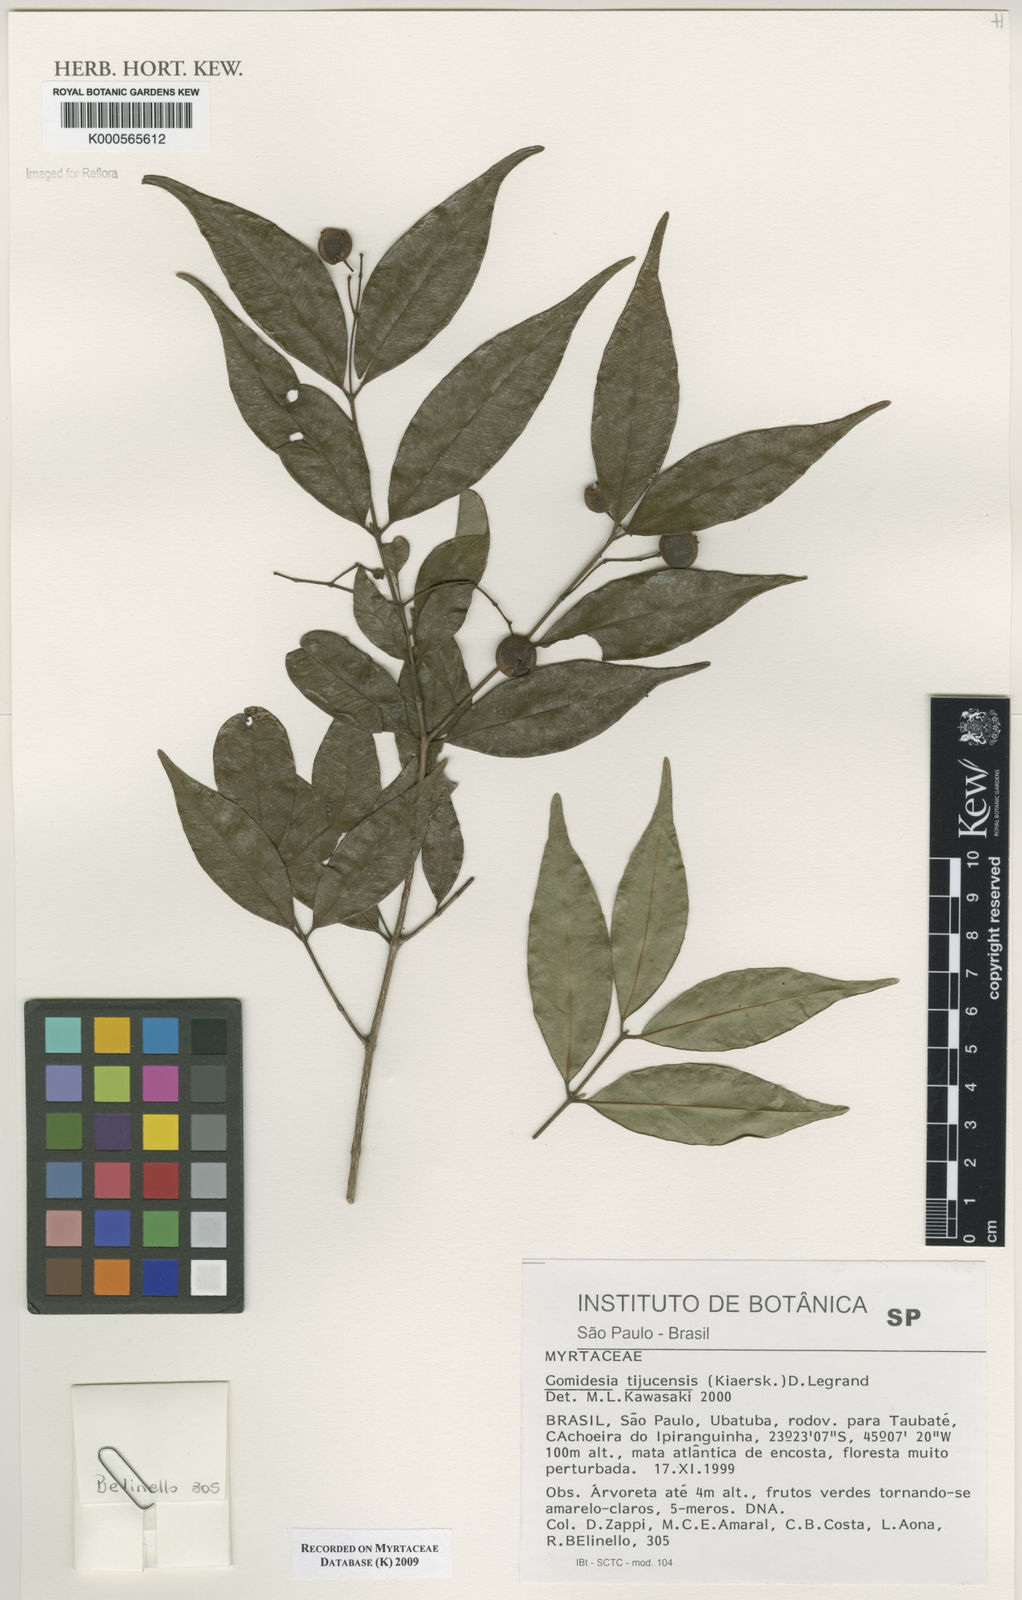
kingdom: Plantae
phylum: Tracheophyta
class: Magnoliopsida
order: Myrtales
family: Myrtaceae
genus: Myrcia
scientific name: Myrcia tijucensis
